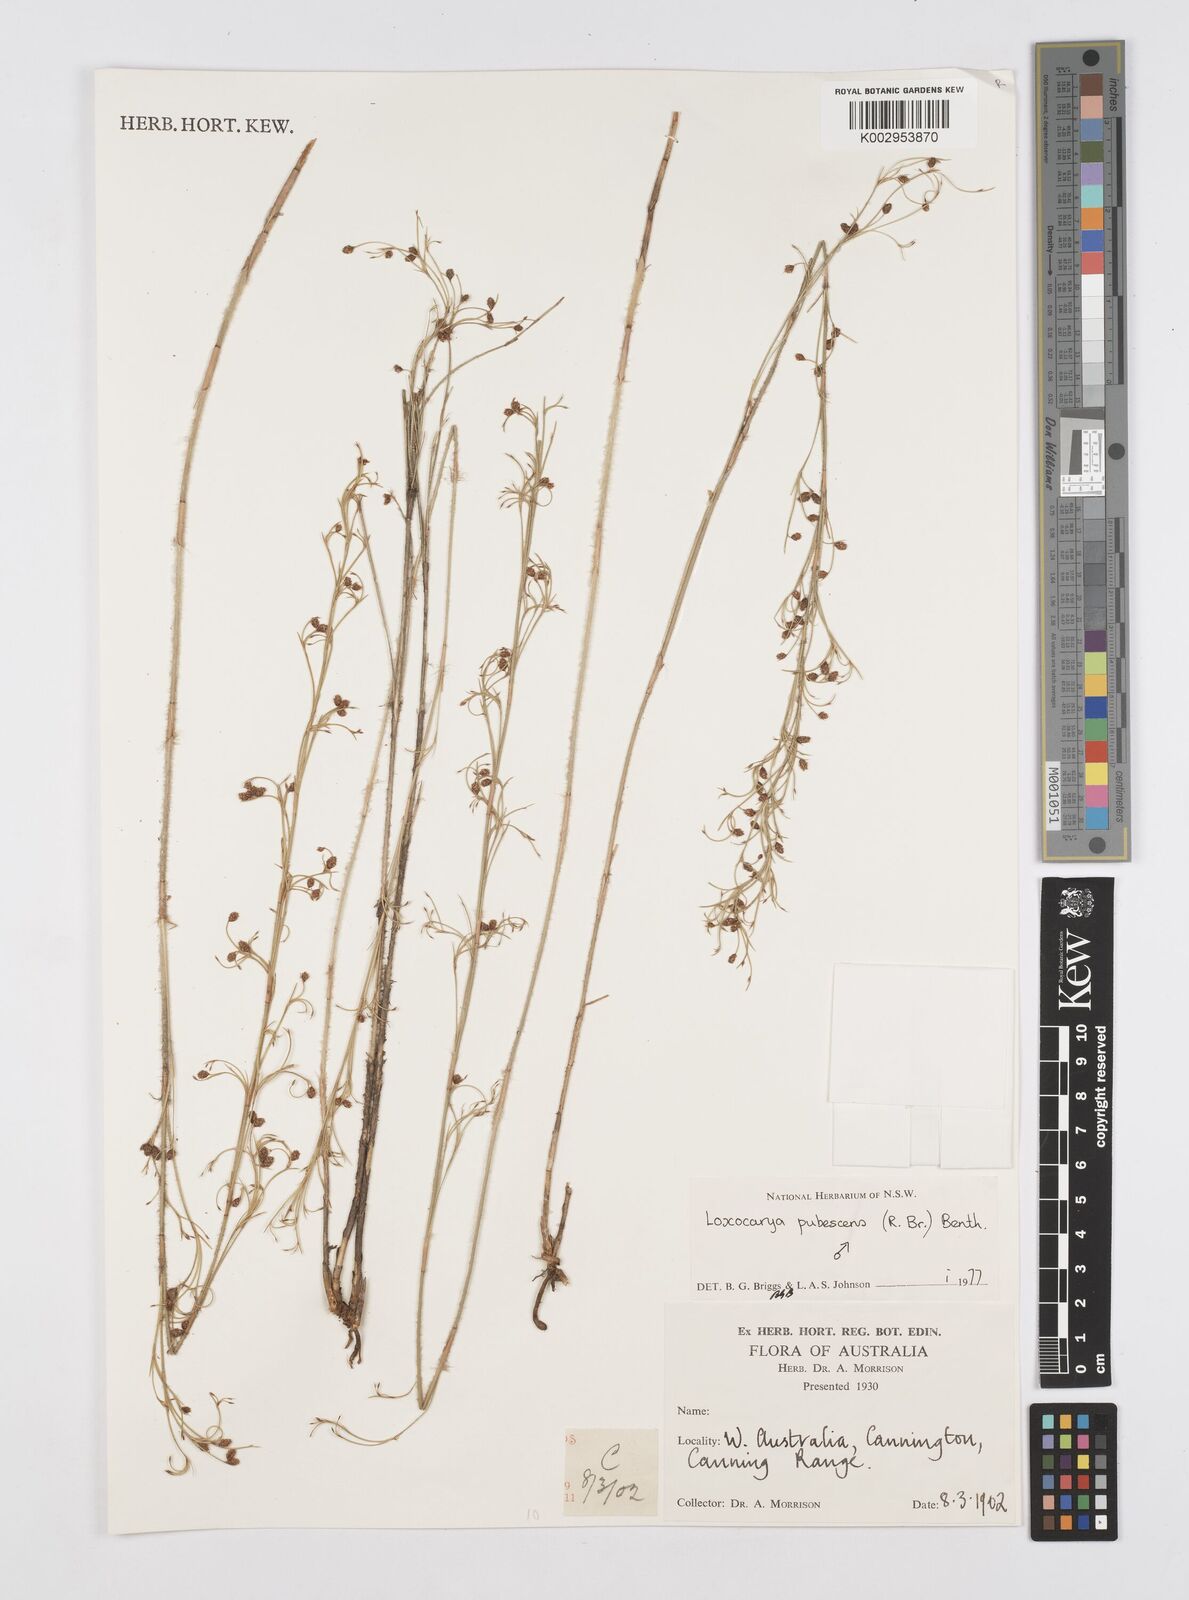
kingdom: Plantae
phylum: Tracheophyta
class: Liliopsida
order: Poales
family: Restionaceae
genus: Hypolaena
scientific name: Hypolaena pubescens
